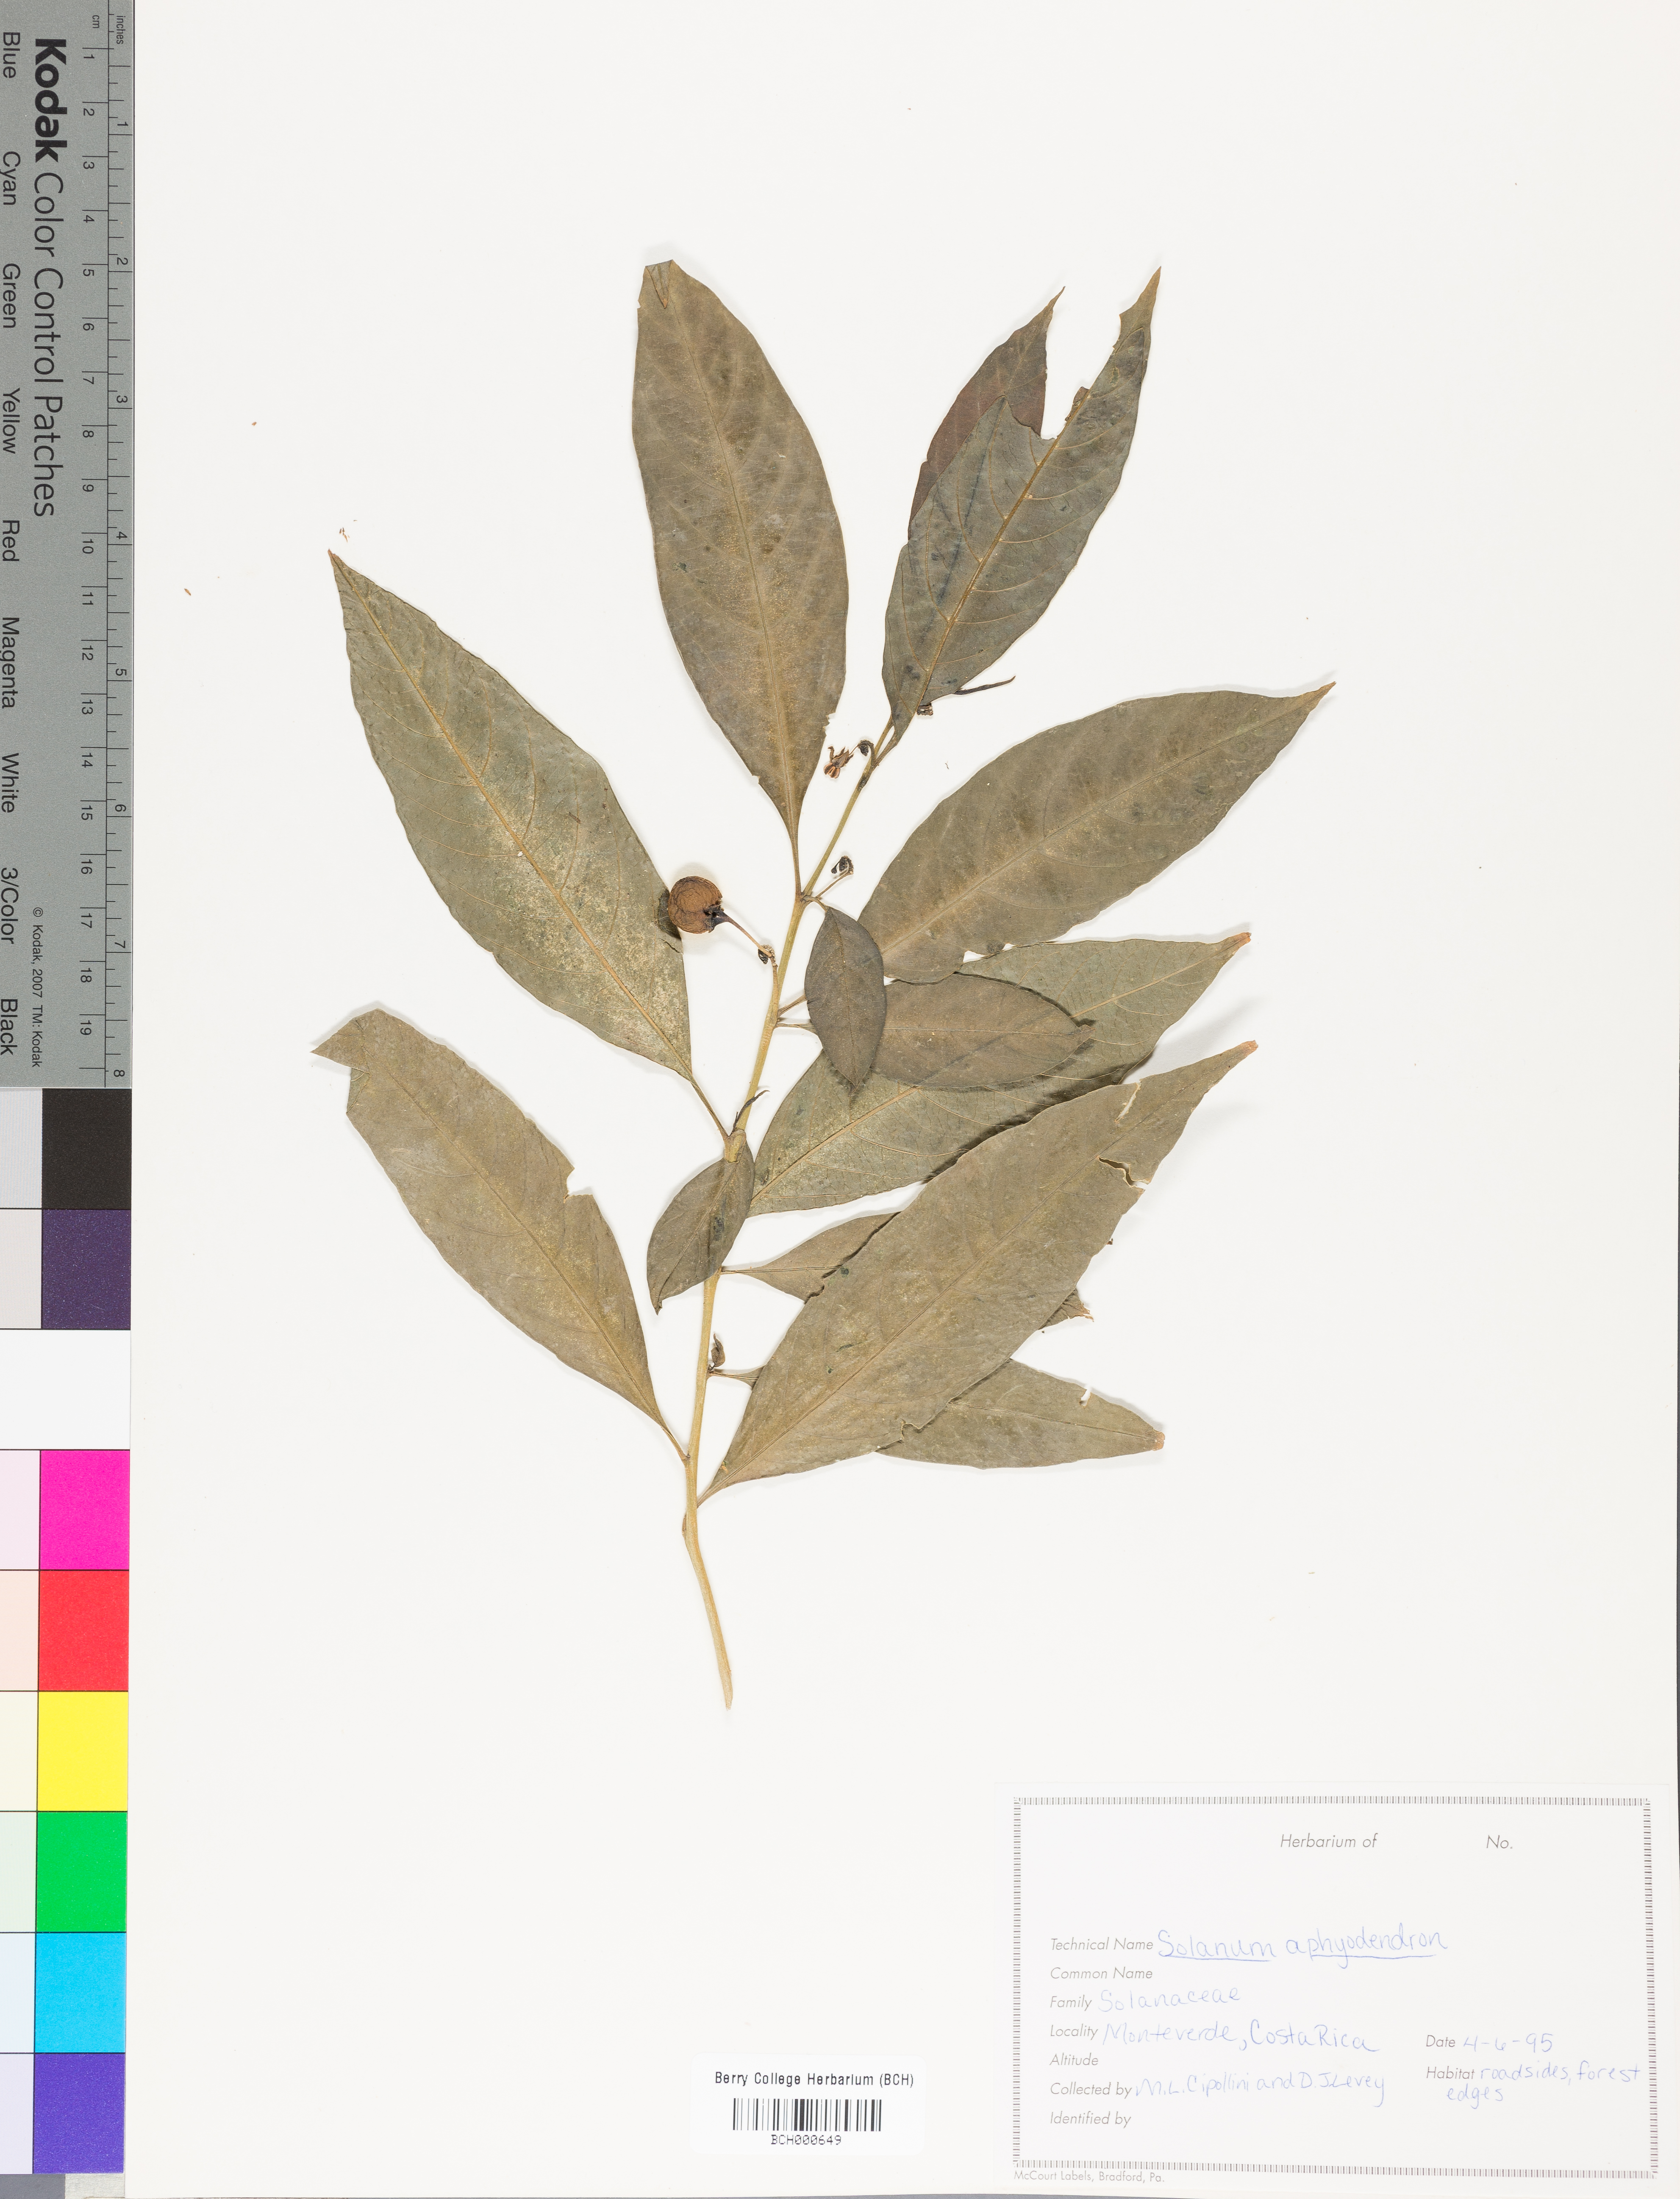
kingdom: Plantae
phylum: Tracheophyta
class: Magnoliopsida
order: Solanales
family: Solanaceae
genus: Solanum
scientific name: Solanum aphyodendron
